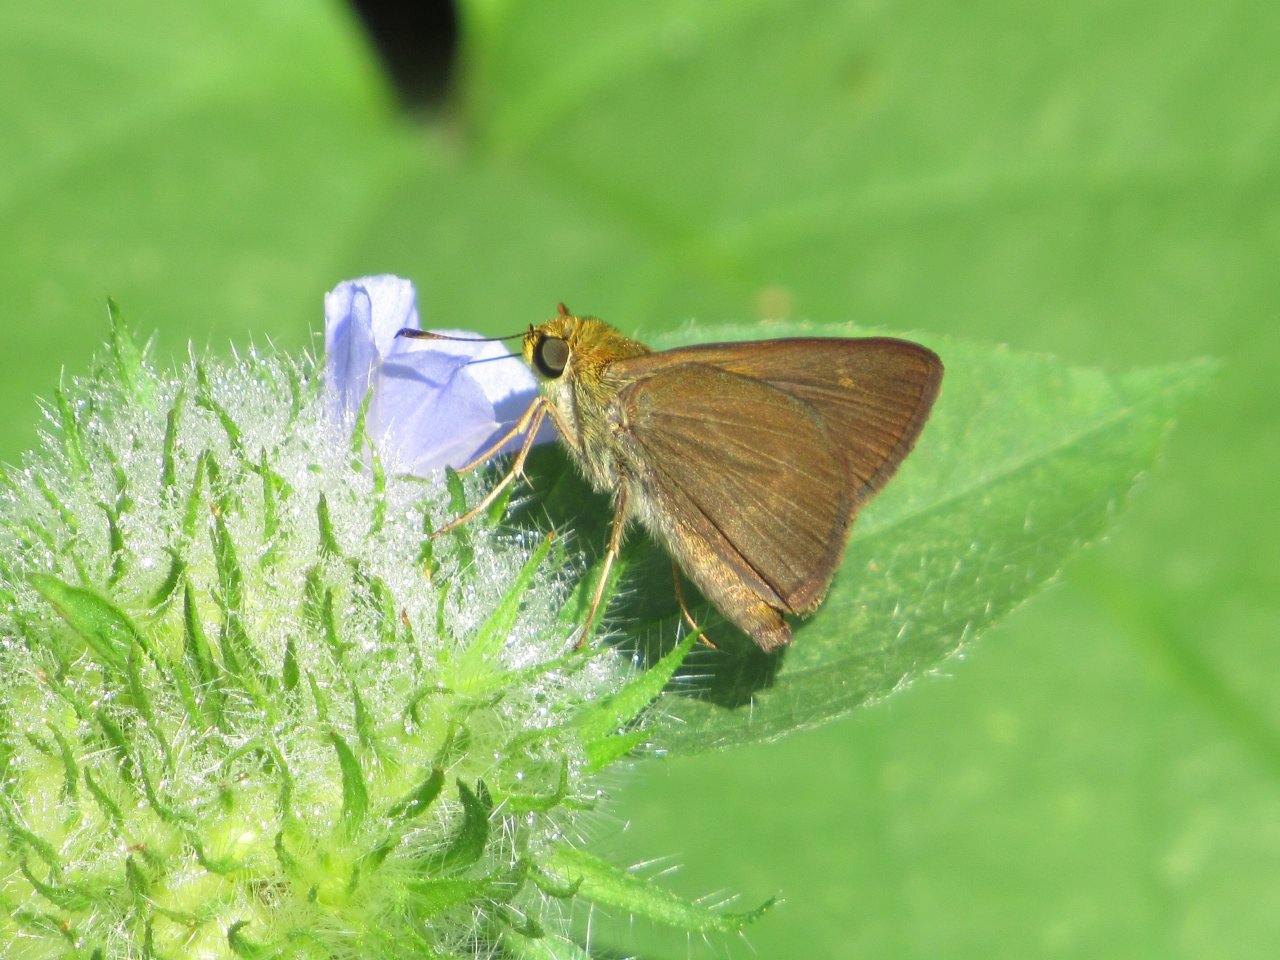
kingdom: Animalia
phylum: Arthropoda
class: Insecta
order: Lepidoptera
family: Hesperiidae
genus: Euphyes
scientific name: Euphyes vestris
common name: Dun Skipper
